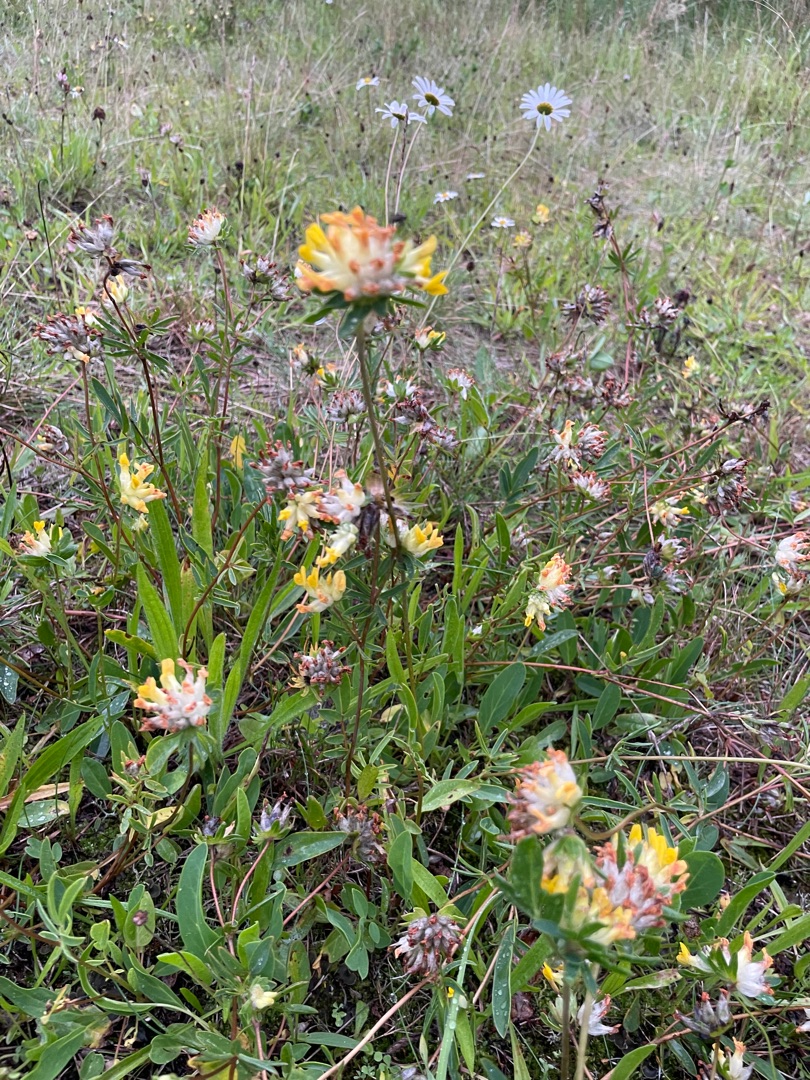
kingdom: Plantae
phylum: Tracheophyta
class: Magnoliopsida
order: Fabales
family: Fabaceae
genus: Anthyllis
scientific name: Anthyllis vulneraria
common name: Rundbælg
